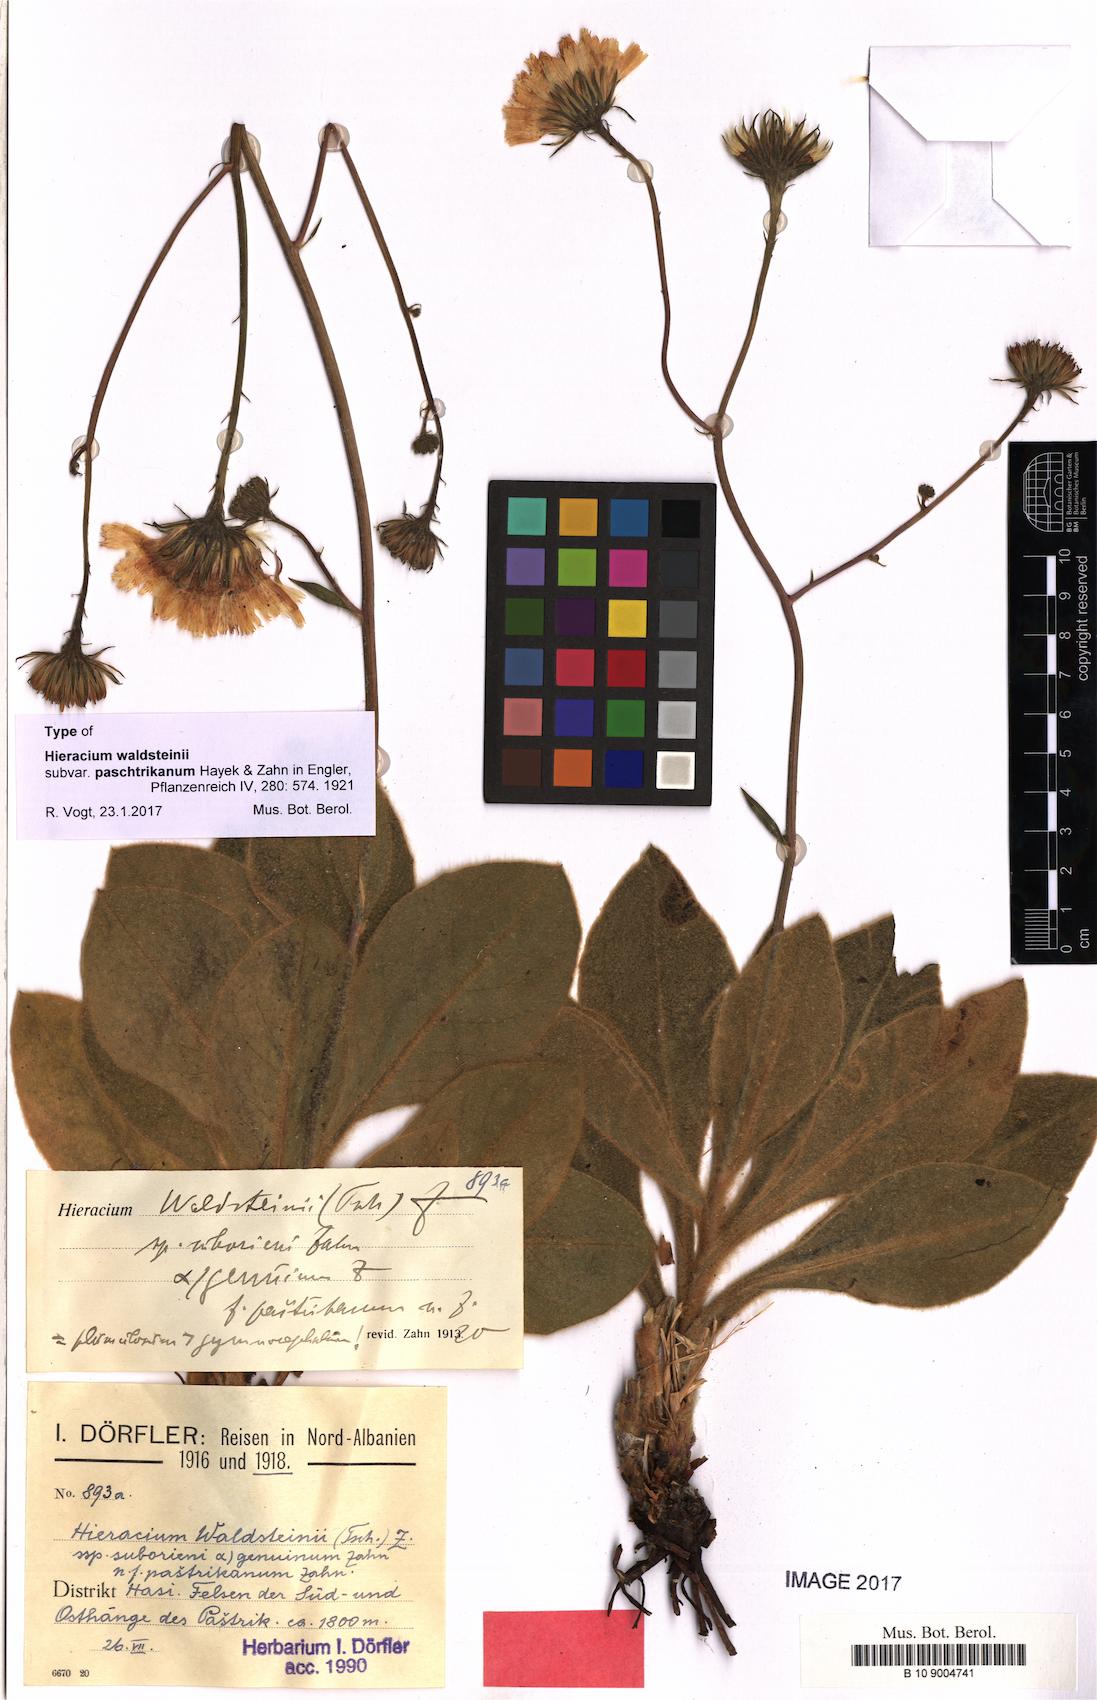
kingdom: Plantae
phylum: Tracheophyta
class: Magnoliopsida
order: Asterales
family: Asteraceae
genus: Hieracium
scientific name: Hieracium waldsteinii
